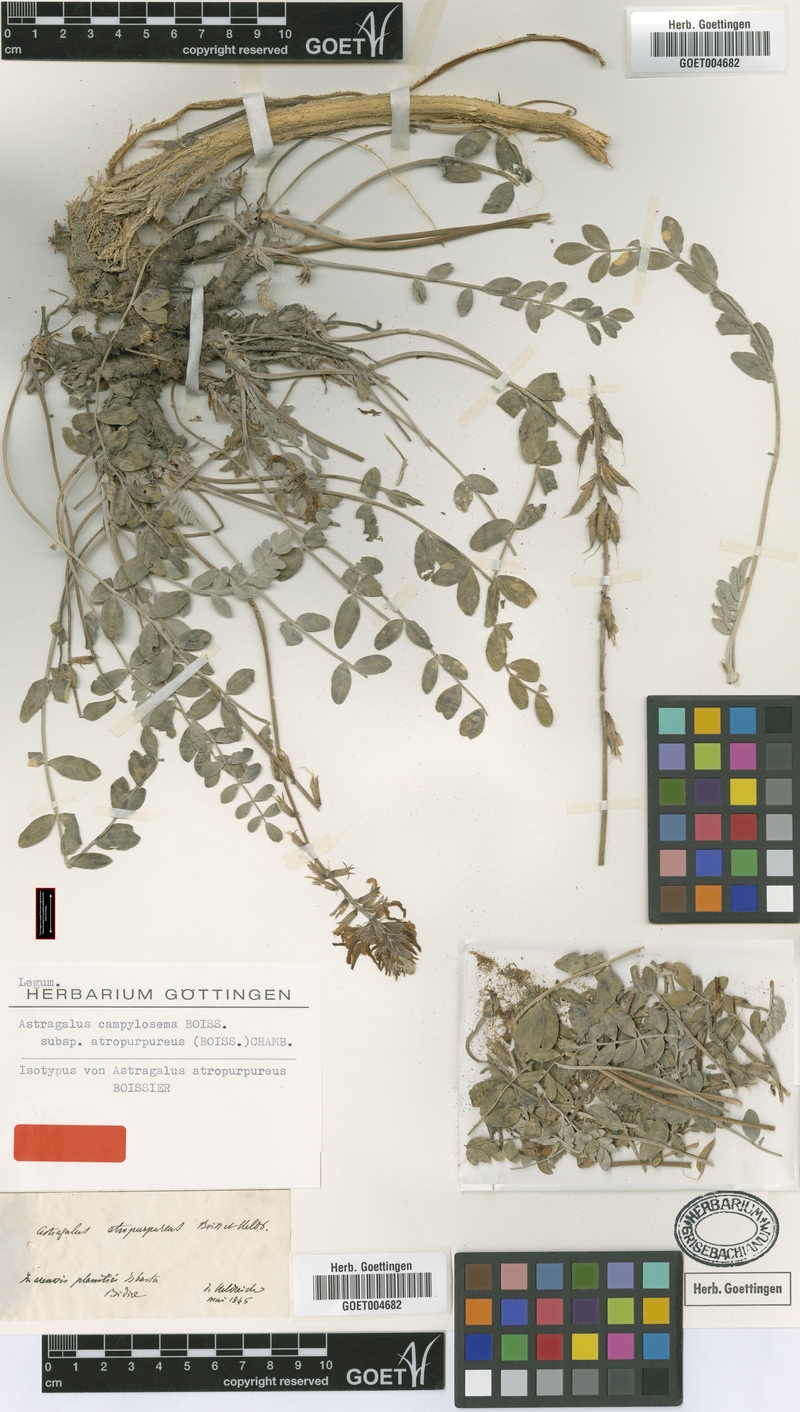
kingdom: Plantae
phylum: Tracheophyta
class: Magnoliopsida
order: Fabales
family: Fabaceae
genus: Astragalus
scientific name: Astragalus pendulus
